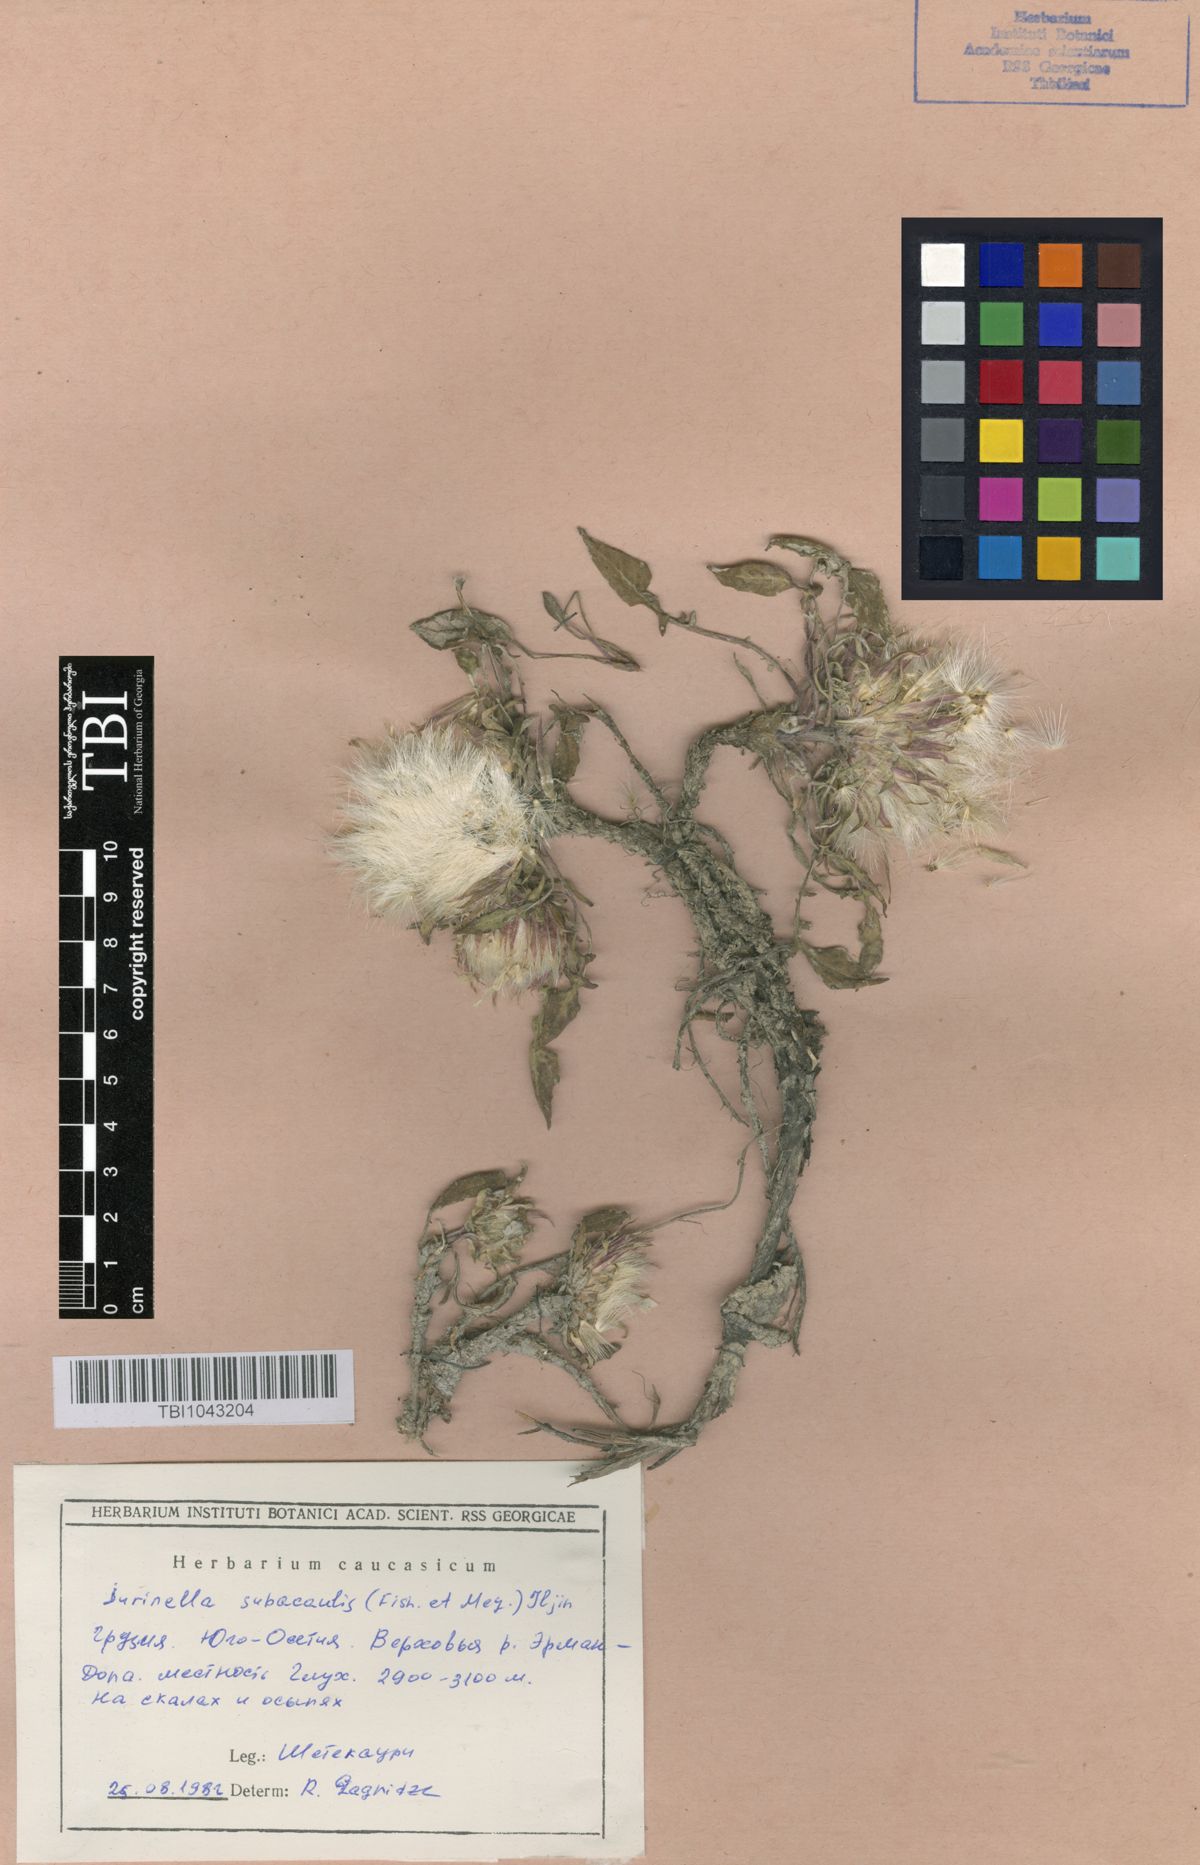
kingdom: Plantae
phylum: Tracheophyta
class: Magnoliopsida
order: Asterales
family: Asteraceae
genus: Jurinea
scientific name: Jurinea moschus
